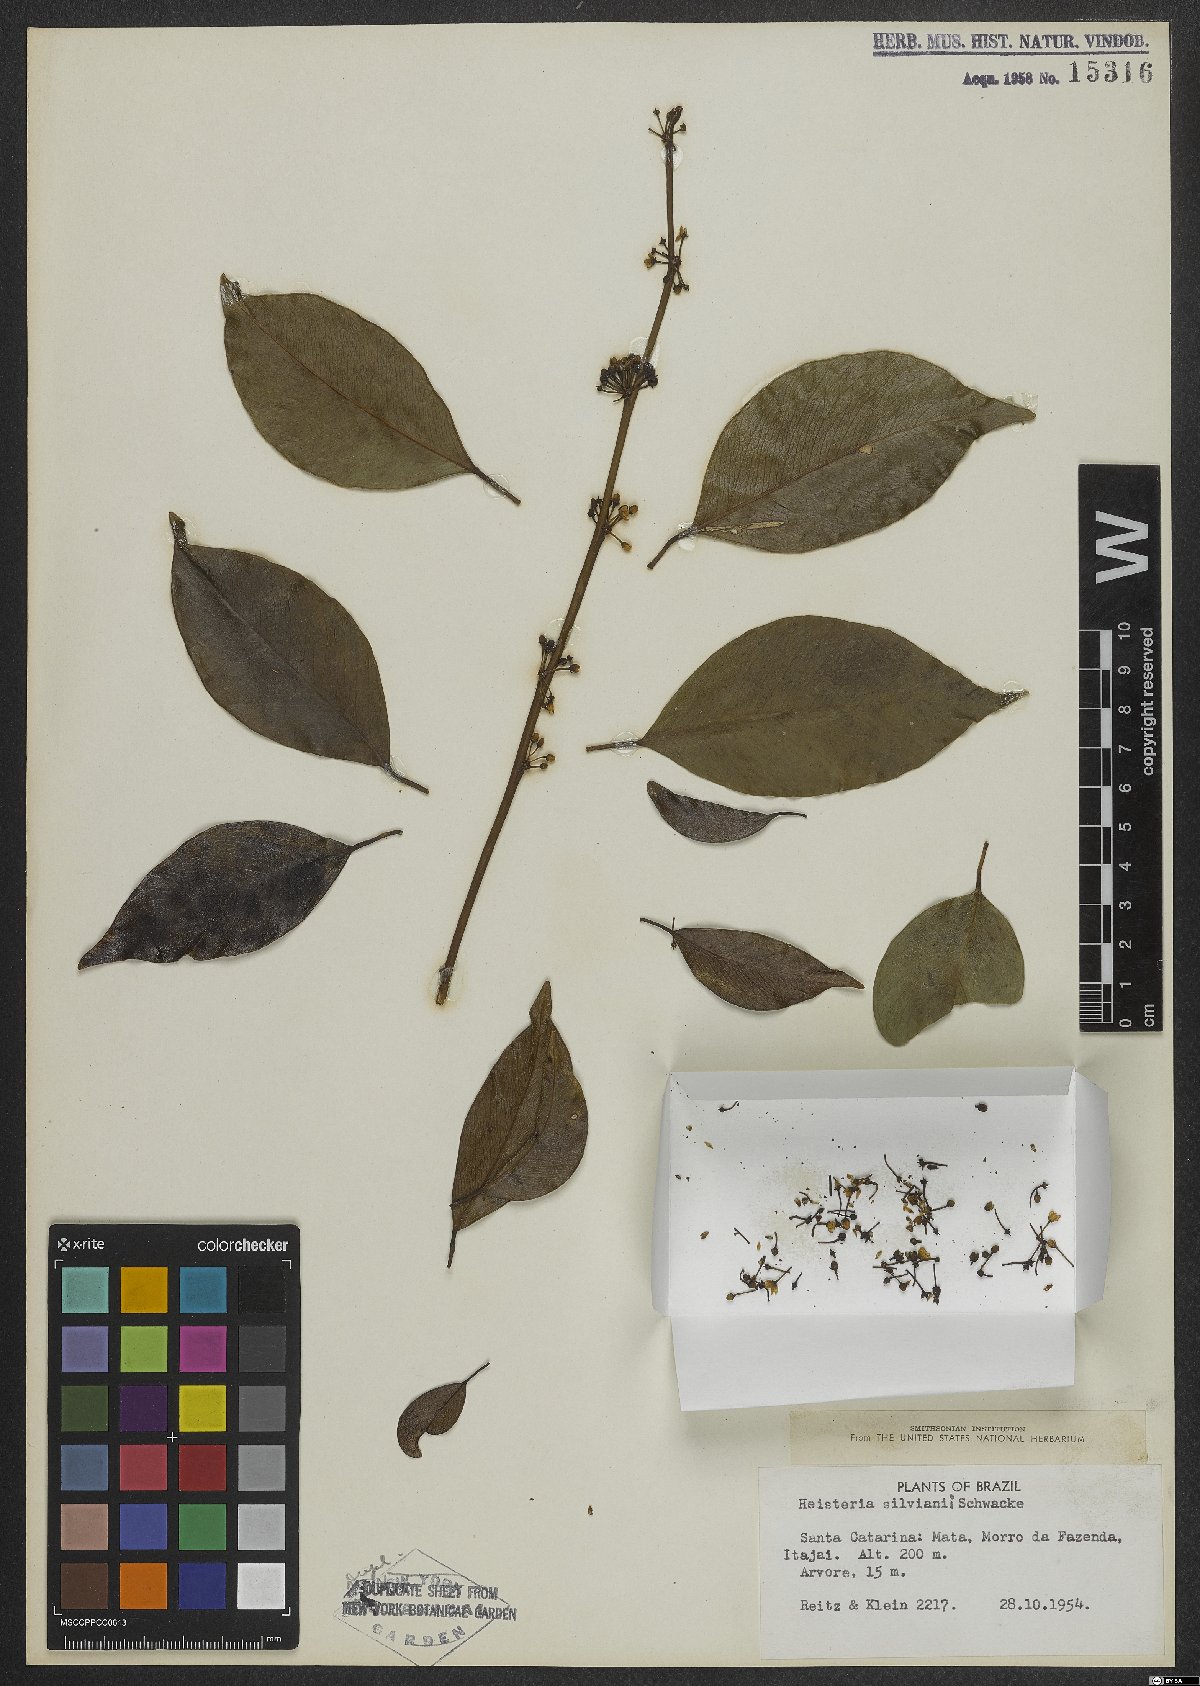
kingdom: Plantae
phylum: Tracheophyta
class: Magnoliopsida
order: Santalales
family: Erythropalaceae
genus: Heisteria
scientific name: Heisteria silvianii
